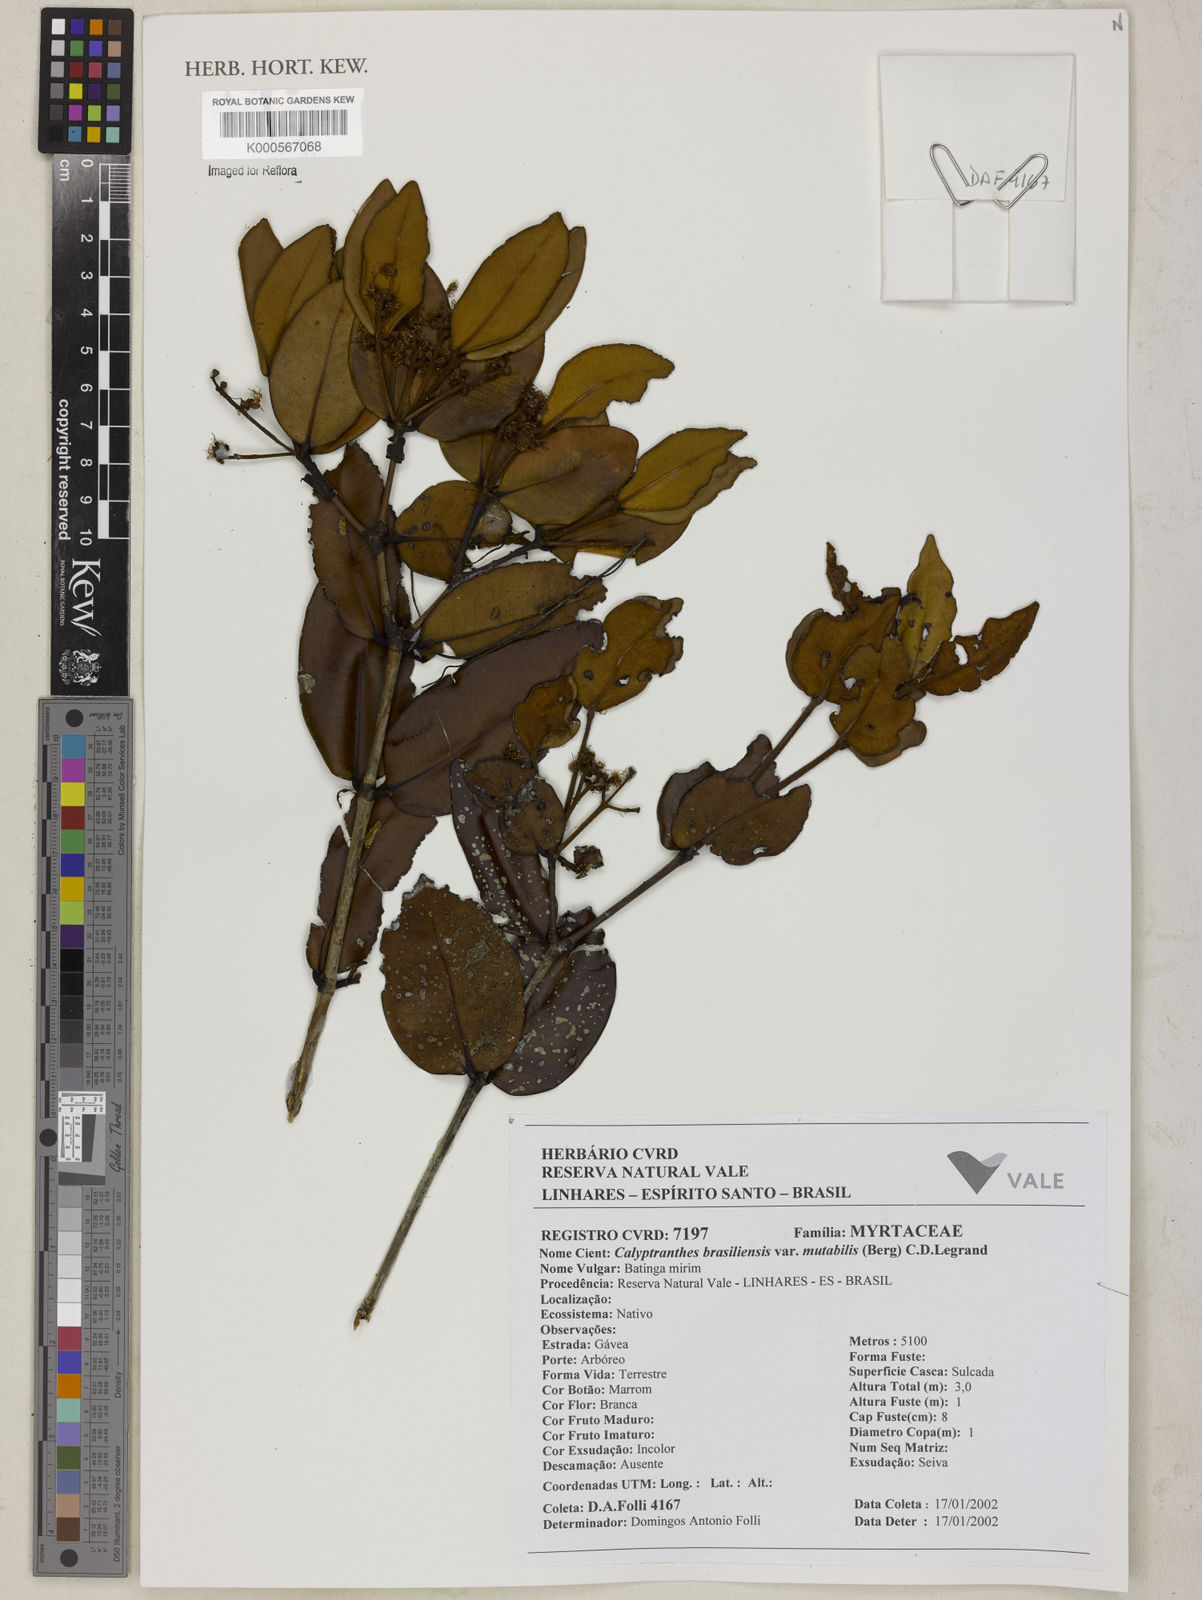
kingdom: Plantae
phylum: Tracheophyta
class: Magnoliopsida
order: Myrtales
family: Myrtaceae
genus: Myrcia
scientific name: Myrcia neobrasiliensis
